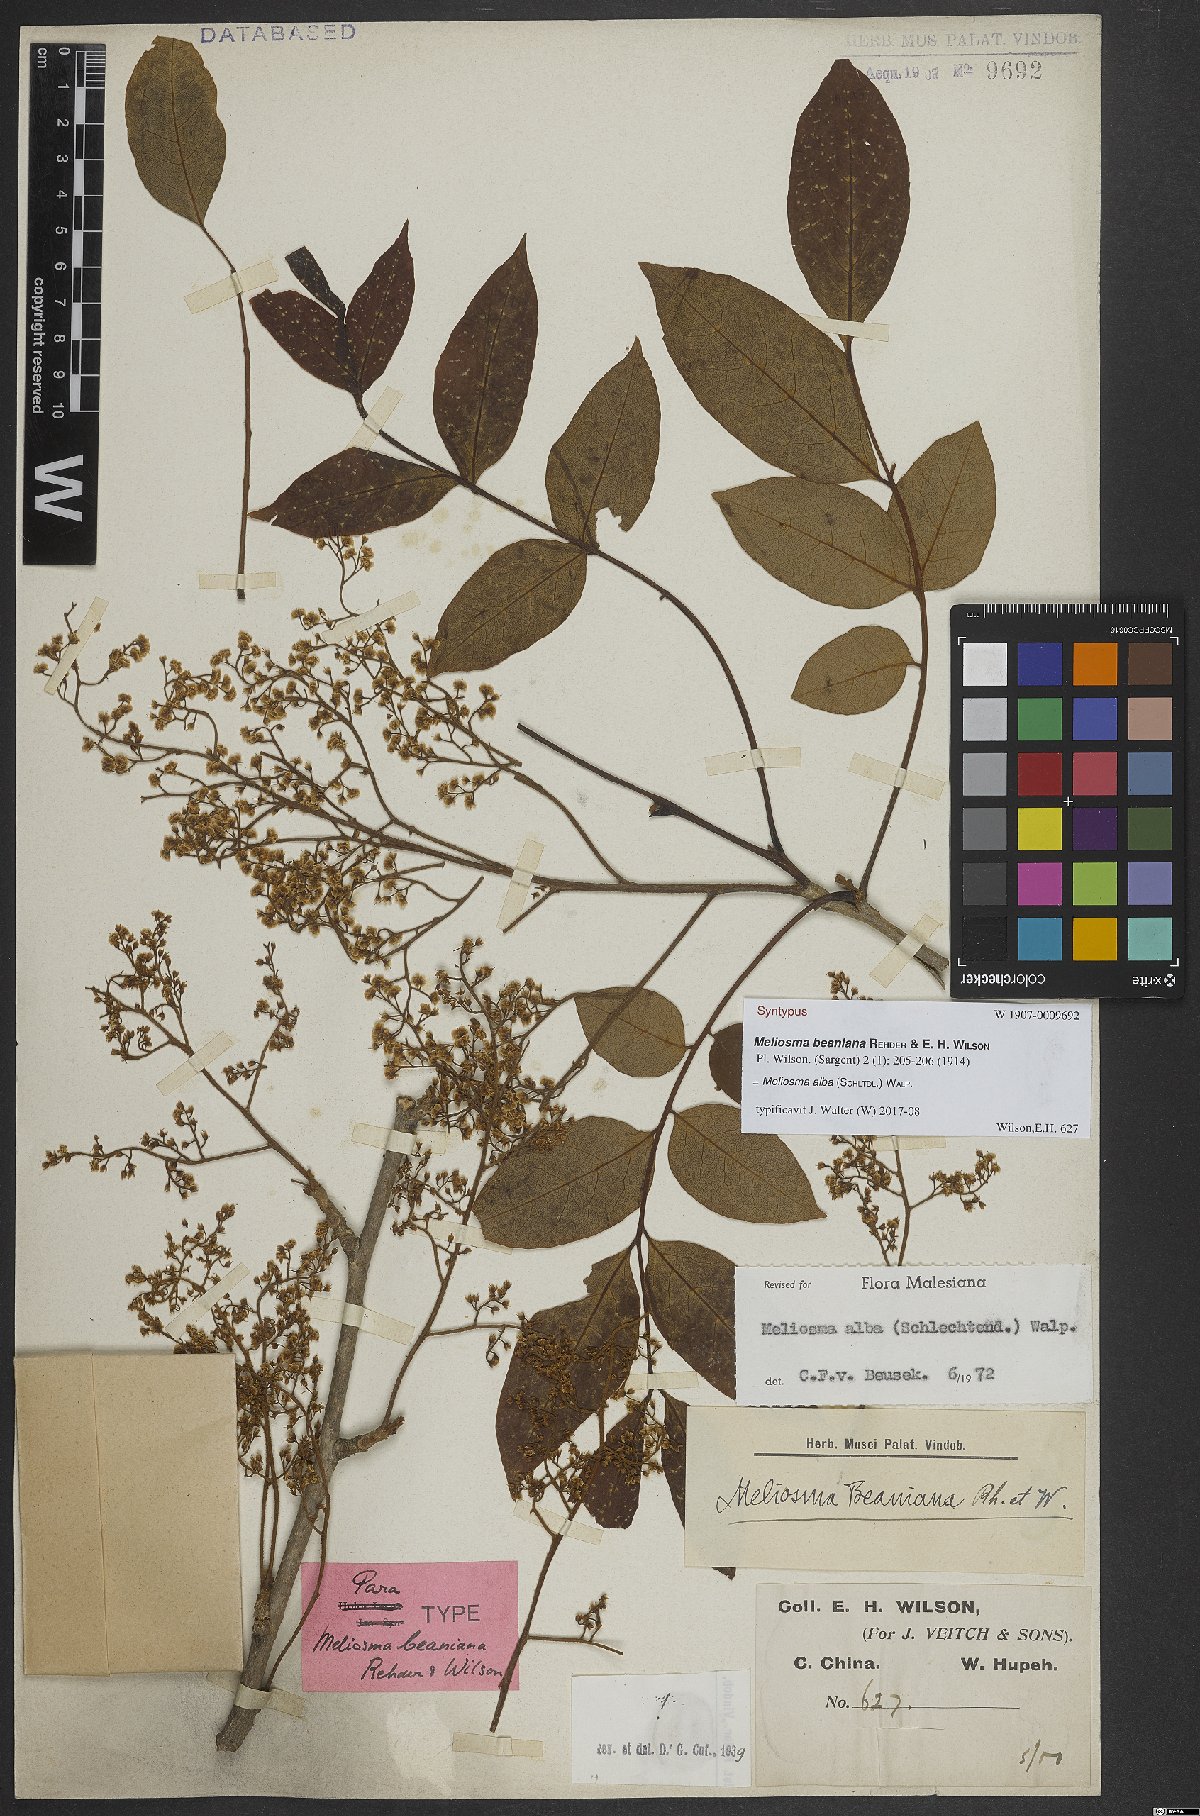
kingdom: Plantae
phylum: Tracheophyta
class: Magnoliopsida
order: Proteales
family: Sabiaceae
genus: Meliosma
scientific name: Meliosma alba
